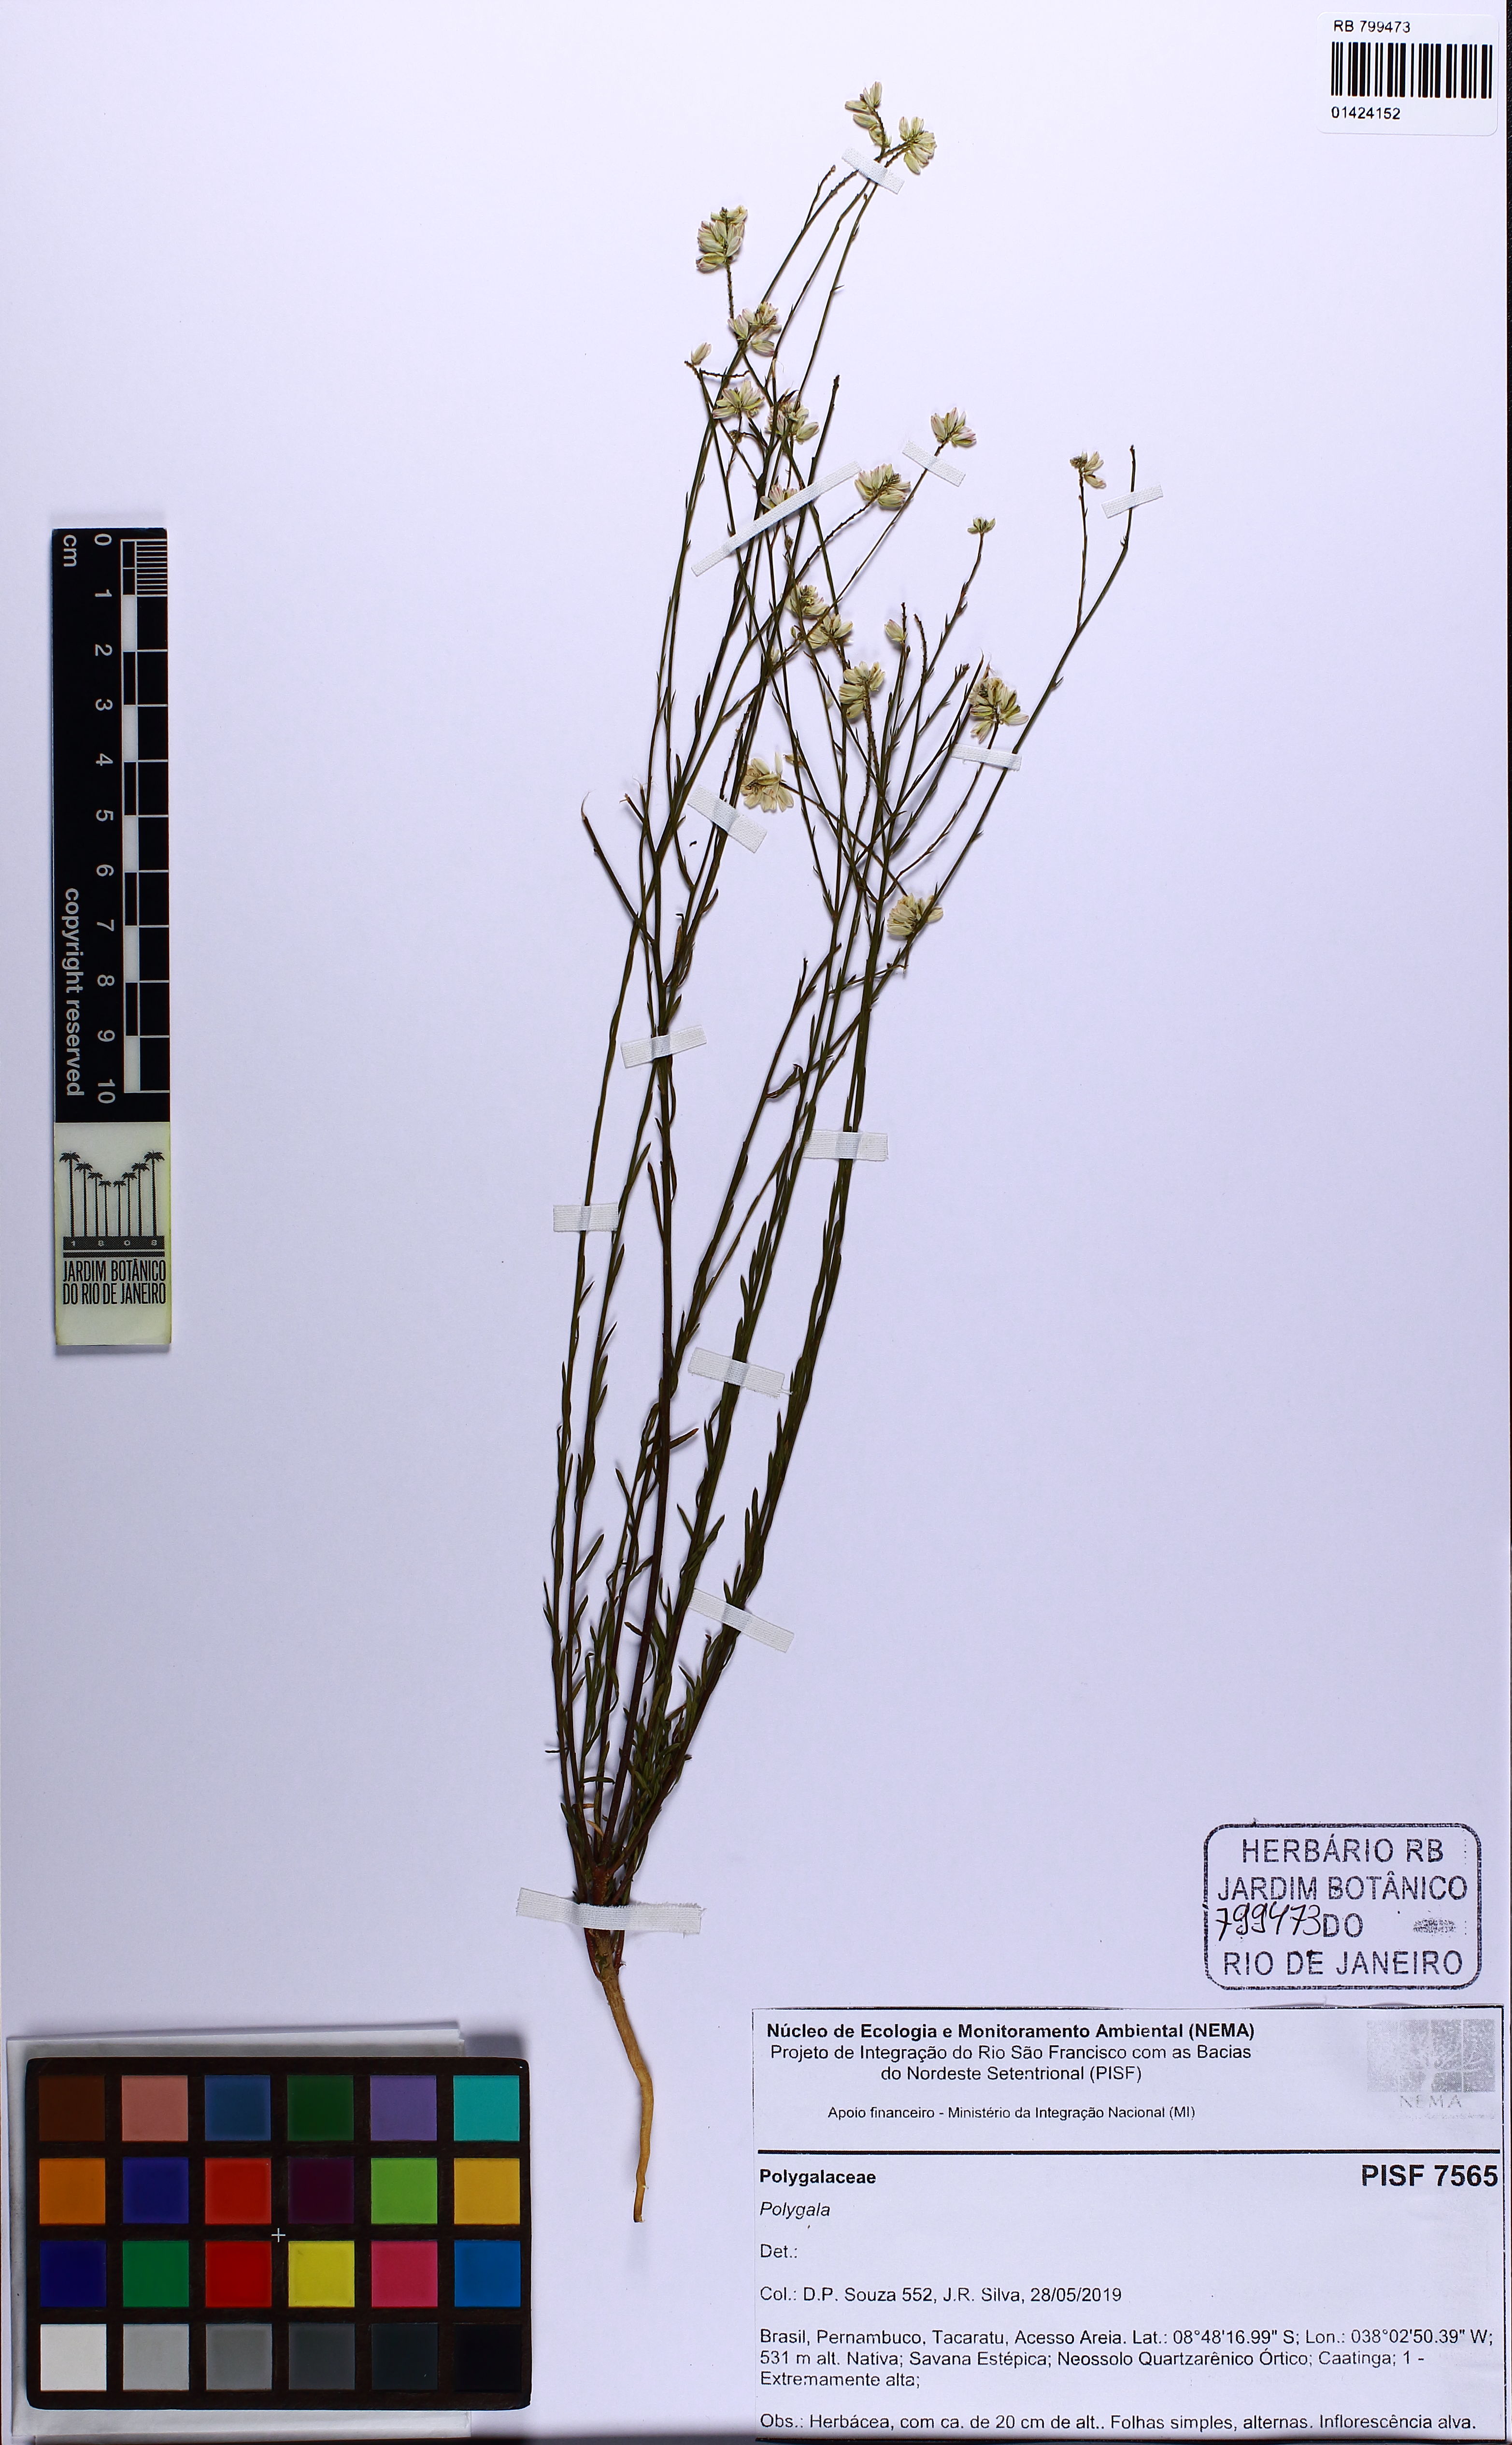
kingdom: Plantae
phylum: Tracheophyta
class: Magnoliopsida
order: Fabales
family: Polygalaceae
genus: Polygala
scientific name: Polygala
